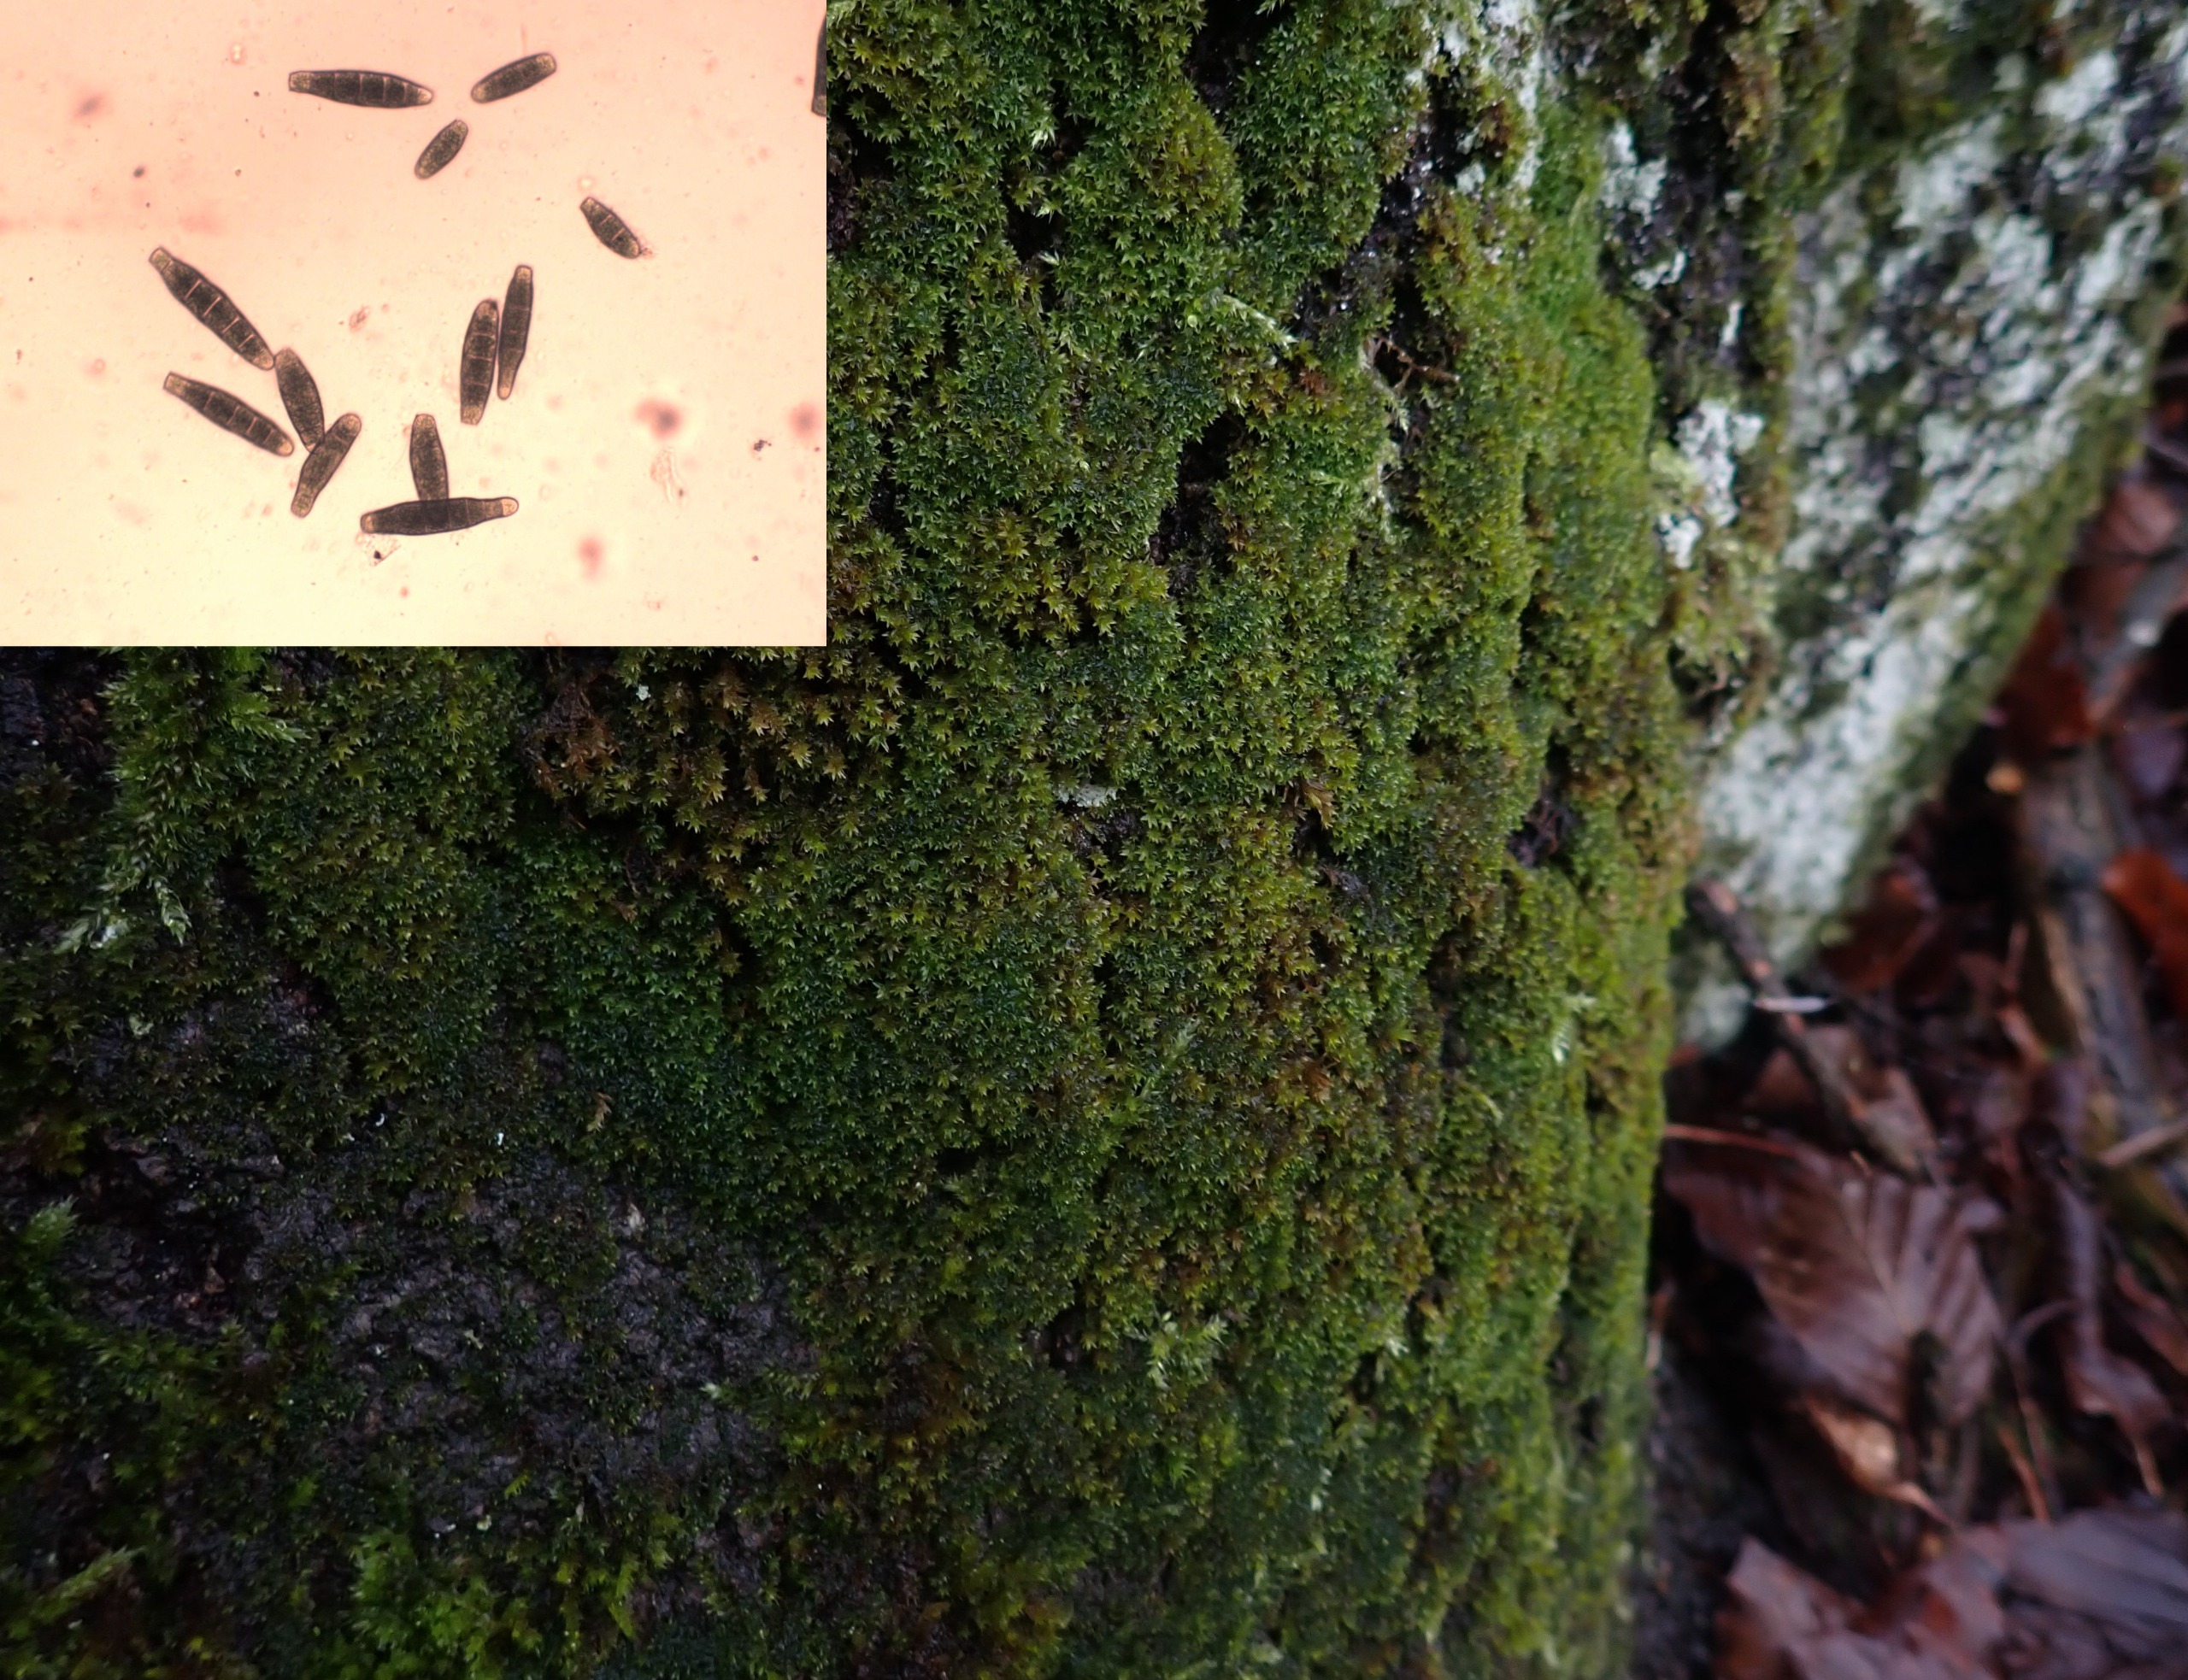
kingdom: Plantae
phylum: Bryophyta
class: Bryopsida
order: Orthotrichales
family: Orthotrichaceae
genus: Zygodon
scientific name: Zygodon conoideus
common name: Tand-køllemos
